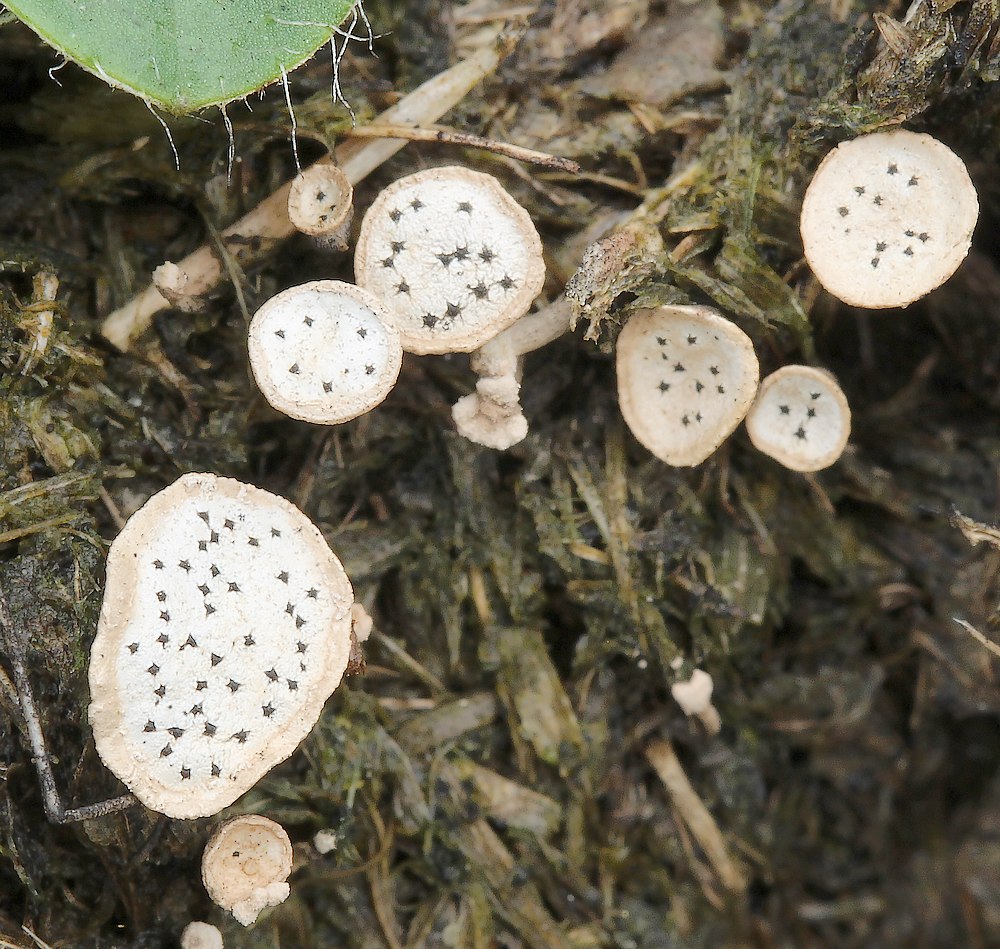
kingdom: Fungi
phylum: Ascomycota
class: Sordariomycetes
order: Xylariales
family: Xylariaceae
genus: Poronia
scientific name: Poronia punctata
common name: stor priksvamp
